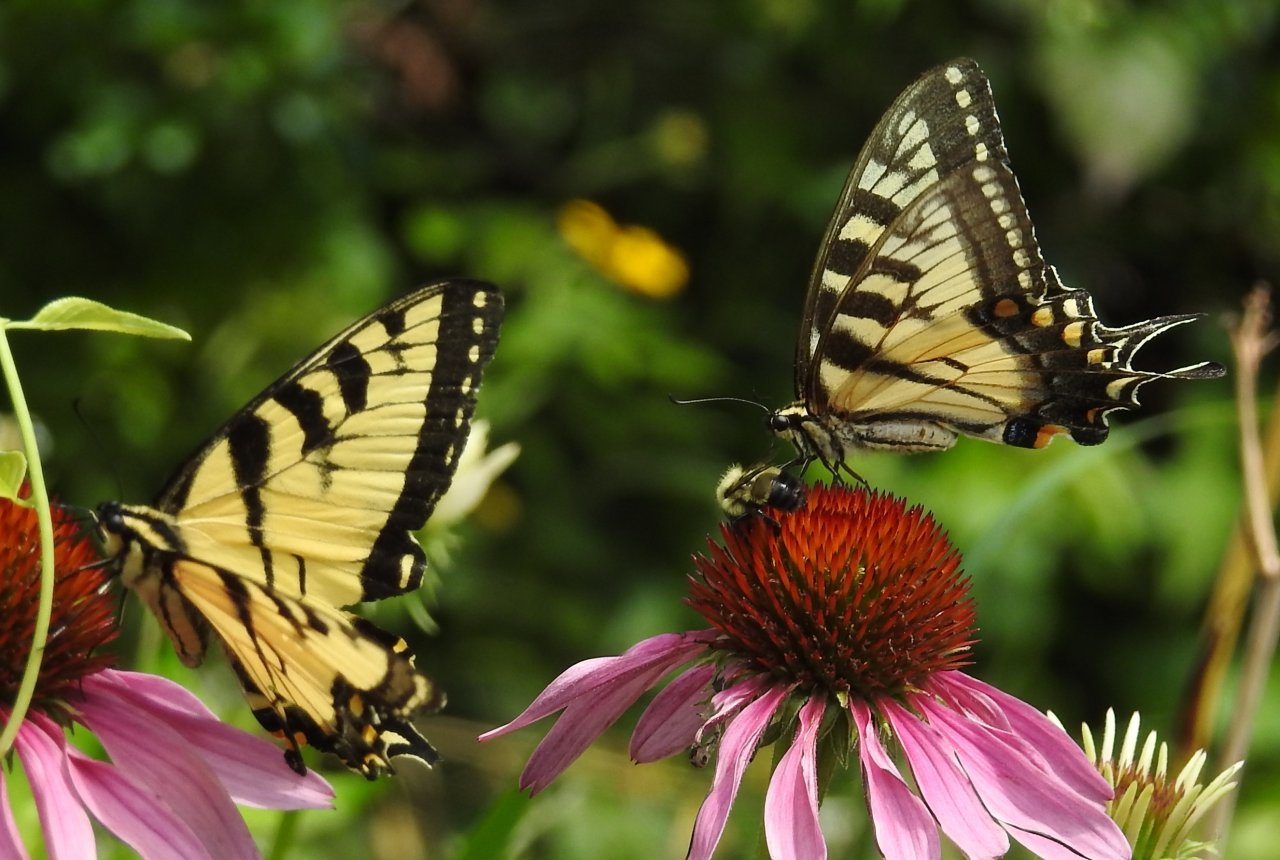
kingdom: Animalia
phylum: Arthropoda
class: Insecta
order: Lepidoptera
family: Papilionidae
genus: Papilio
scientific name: Papilio
